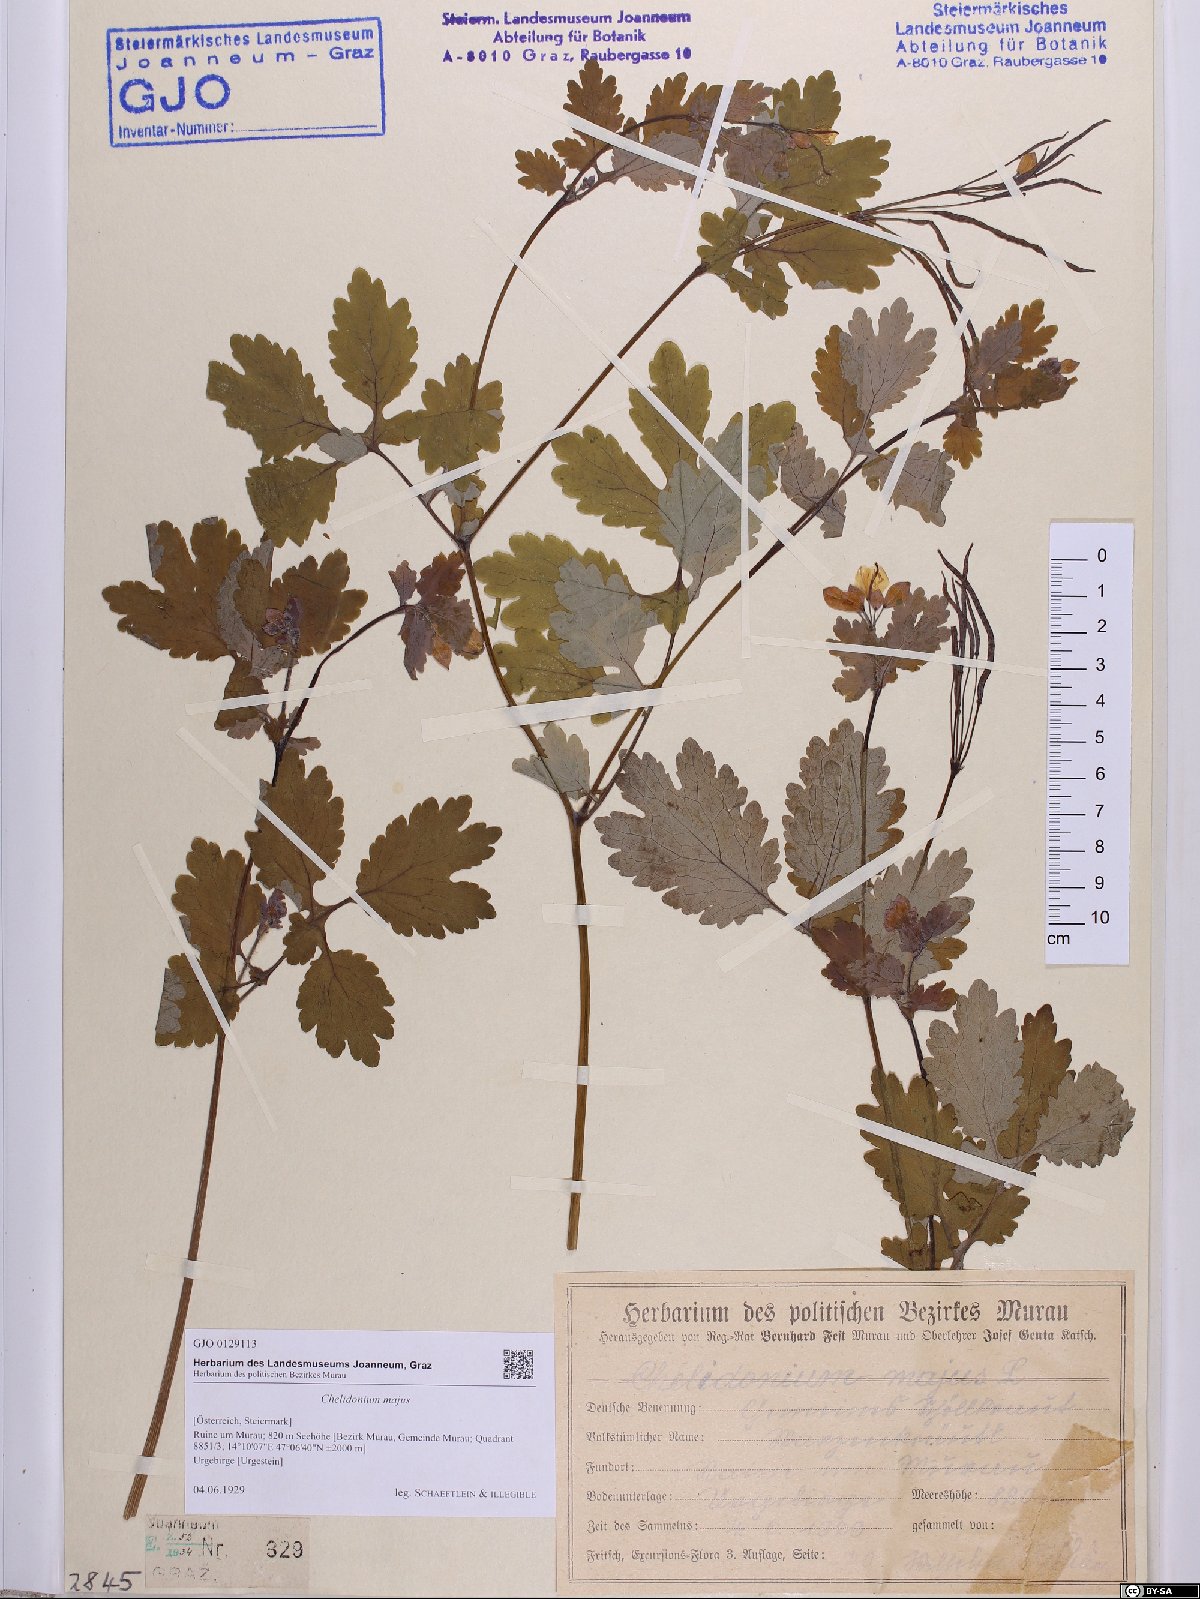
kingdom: Plantae
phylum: Tracheophyta
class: Magnoliopsida
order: Ranunculales
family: Papaveraceae
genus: Chelidonium
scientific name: Chelidonium majus
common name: Greater celandine
